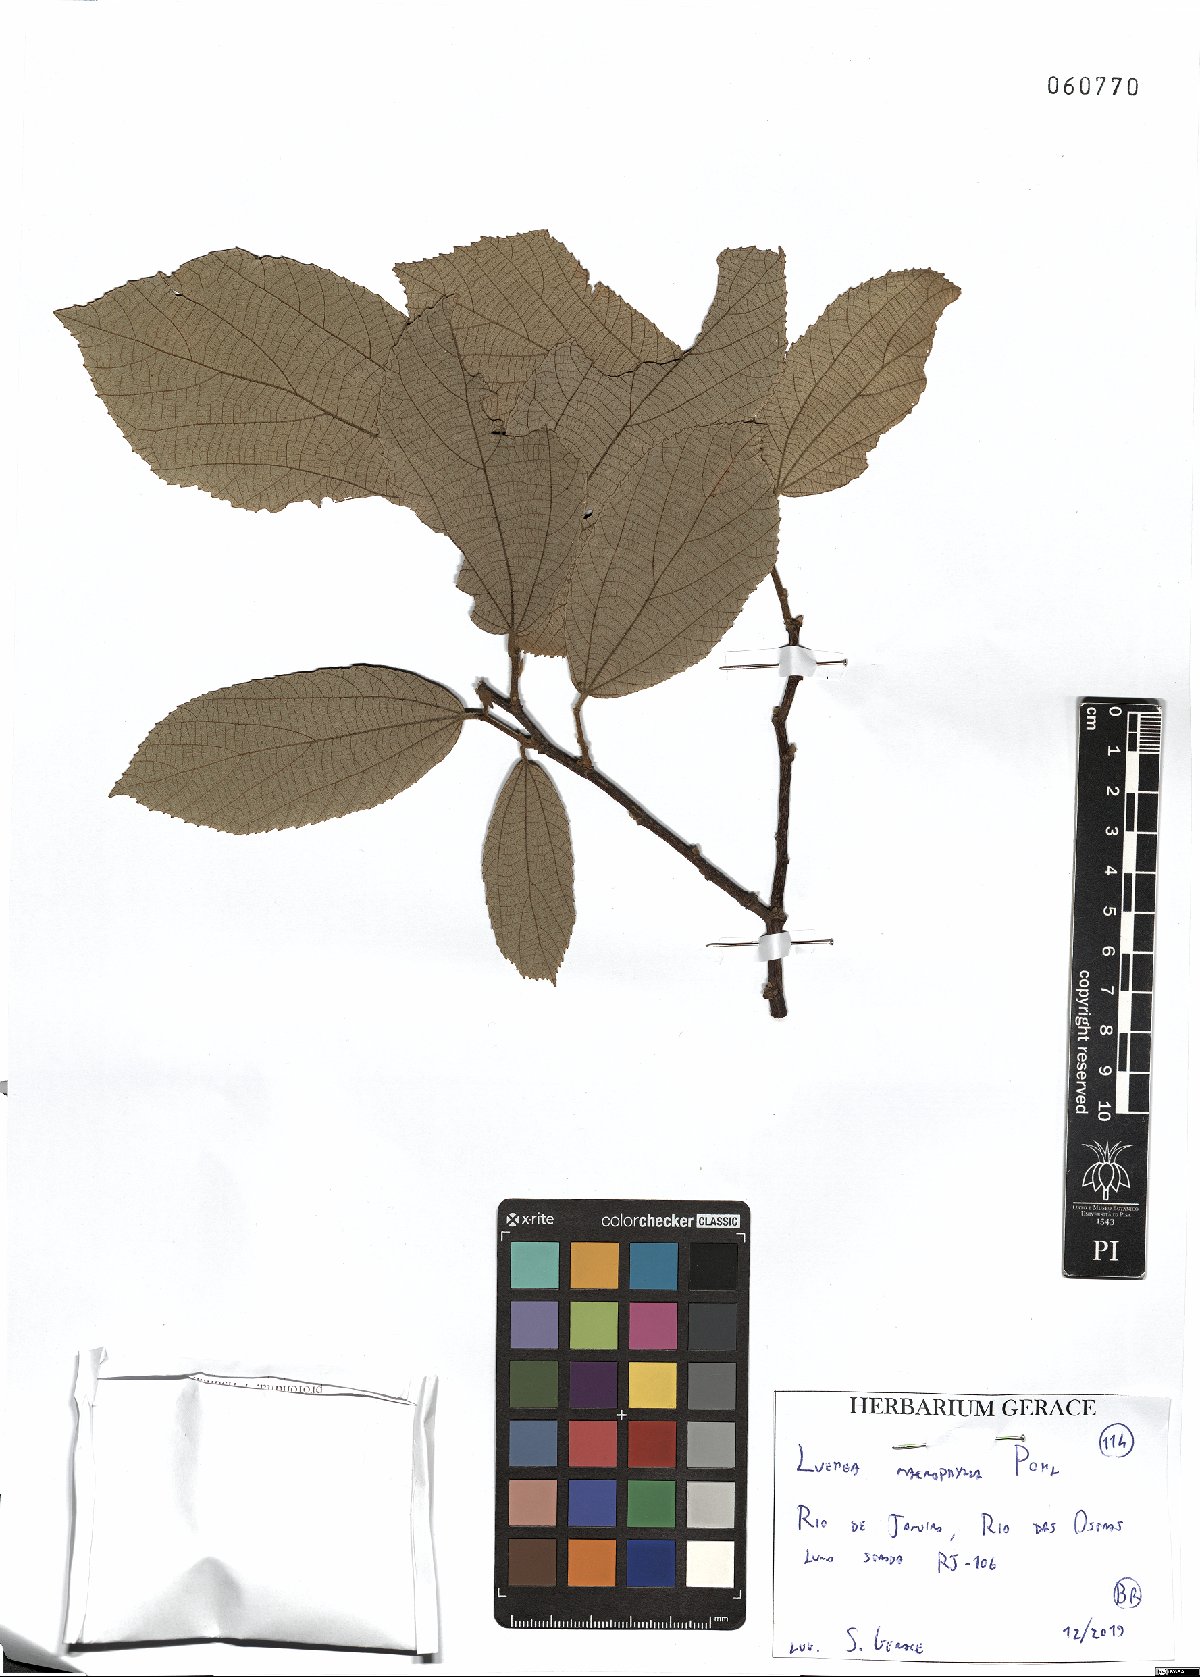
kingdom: Plantae
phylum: Tracheophyta
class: Magnoliopsida
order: Malvales
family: Malvaceae
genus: Luehea
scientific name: Luehea rufescens
